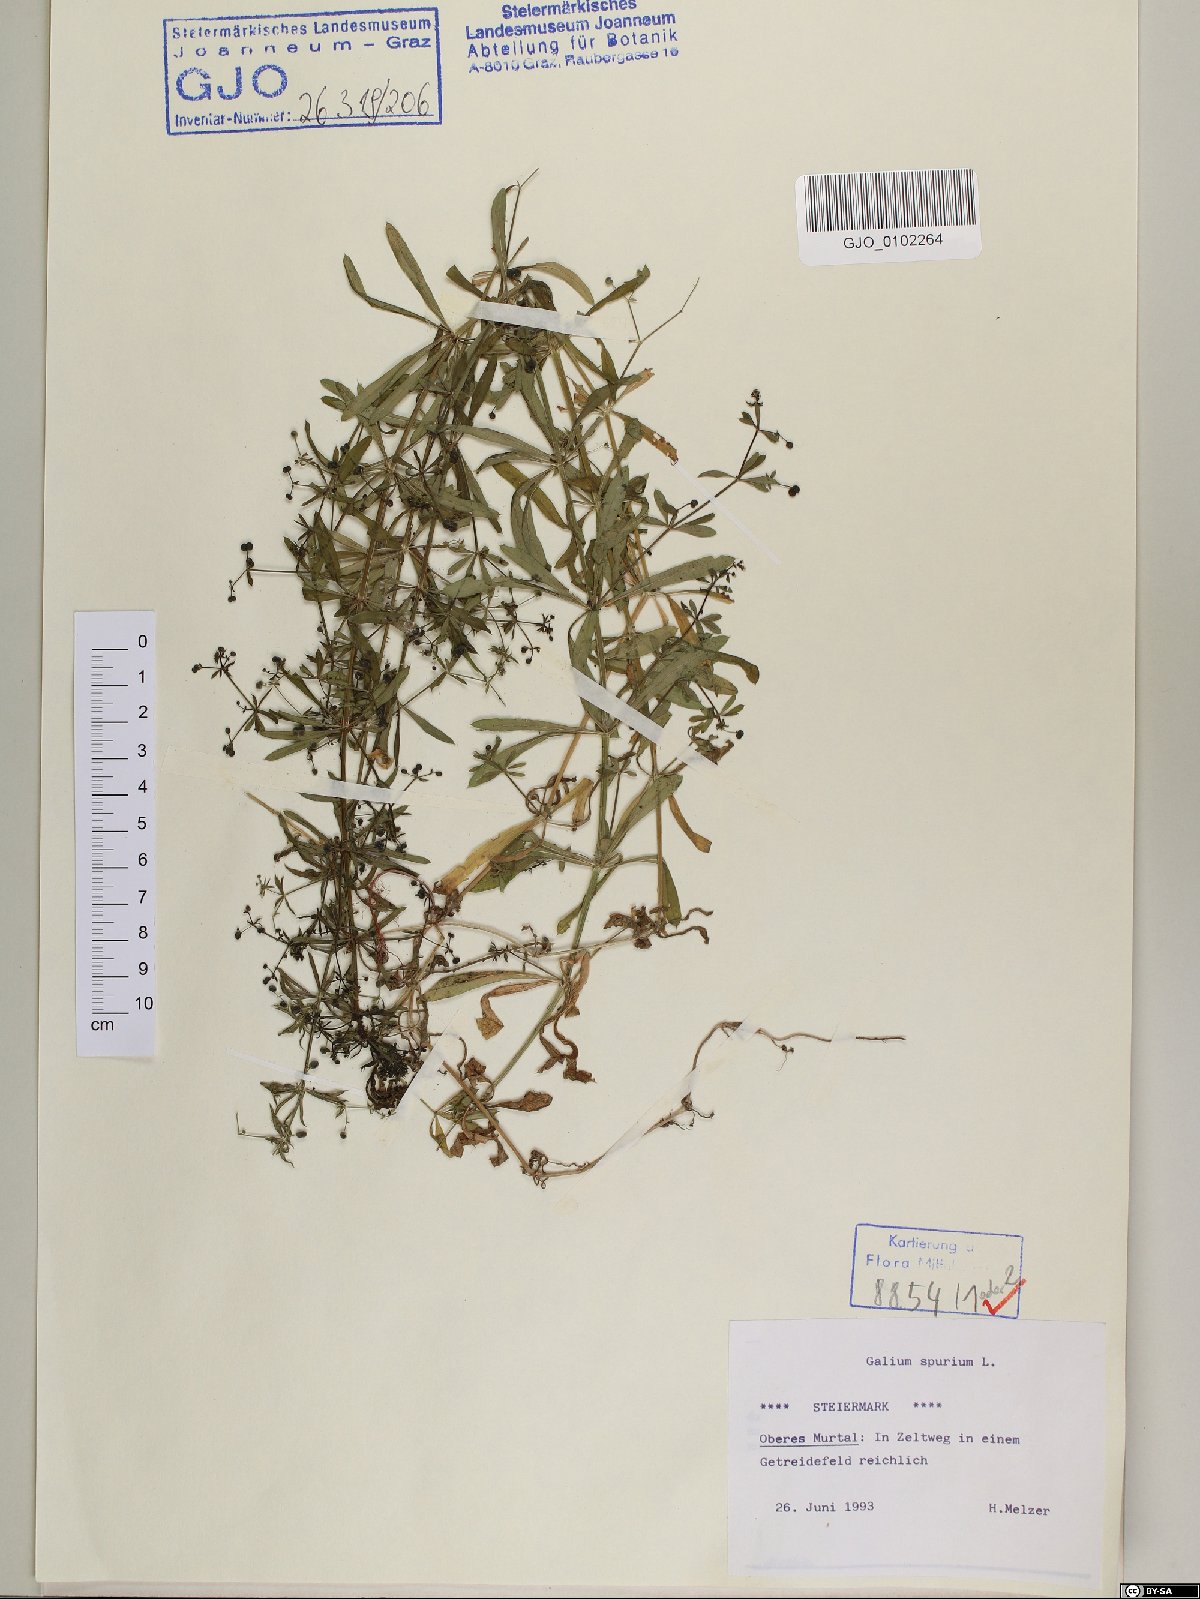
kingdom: Plantae
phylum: Tracheophyta
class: Magnoliopsida
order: Gentianales
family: Rubiaceae
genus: Galium
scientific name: Galium spurium
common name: False cleavers
